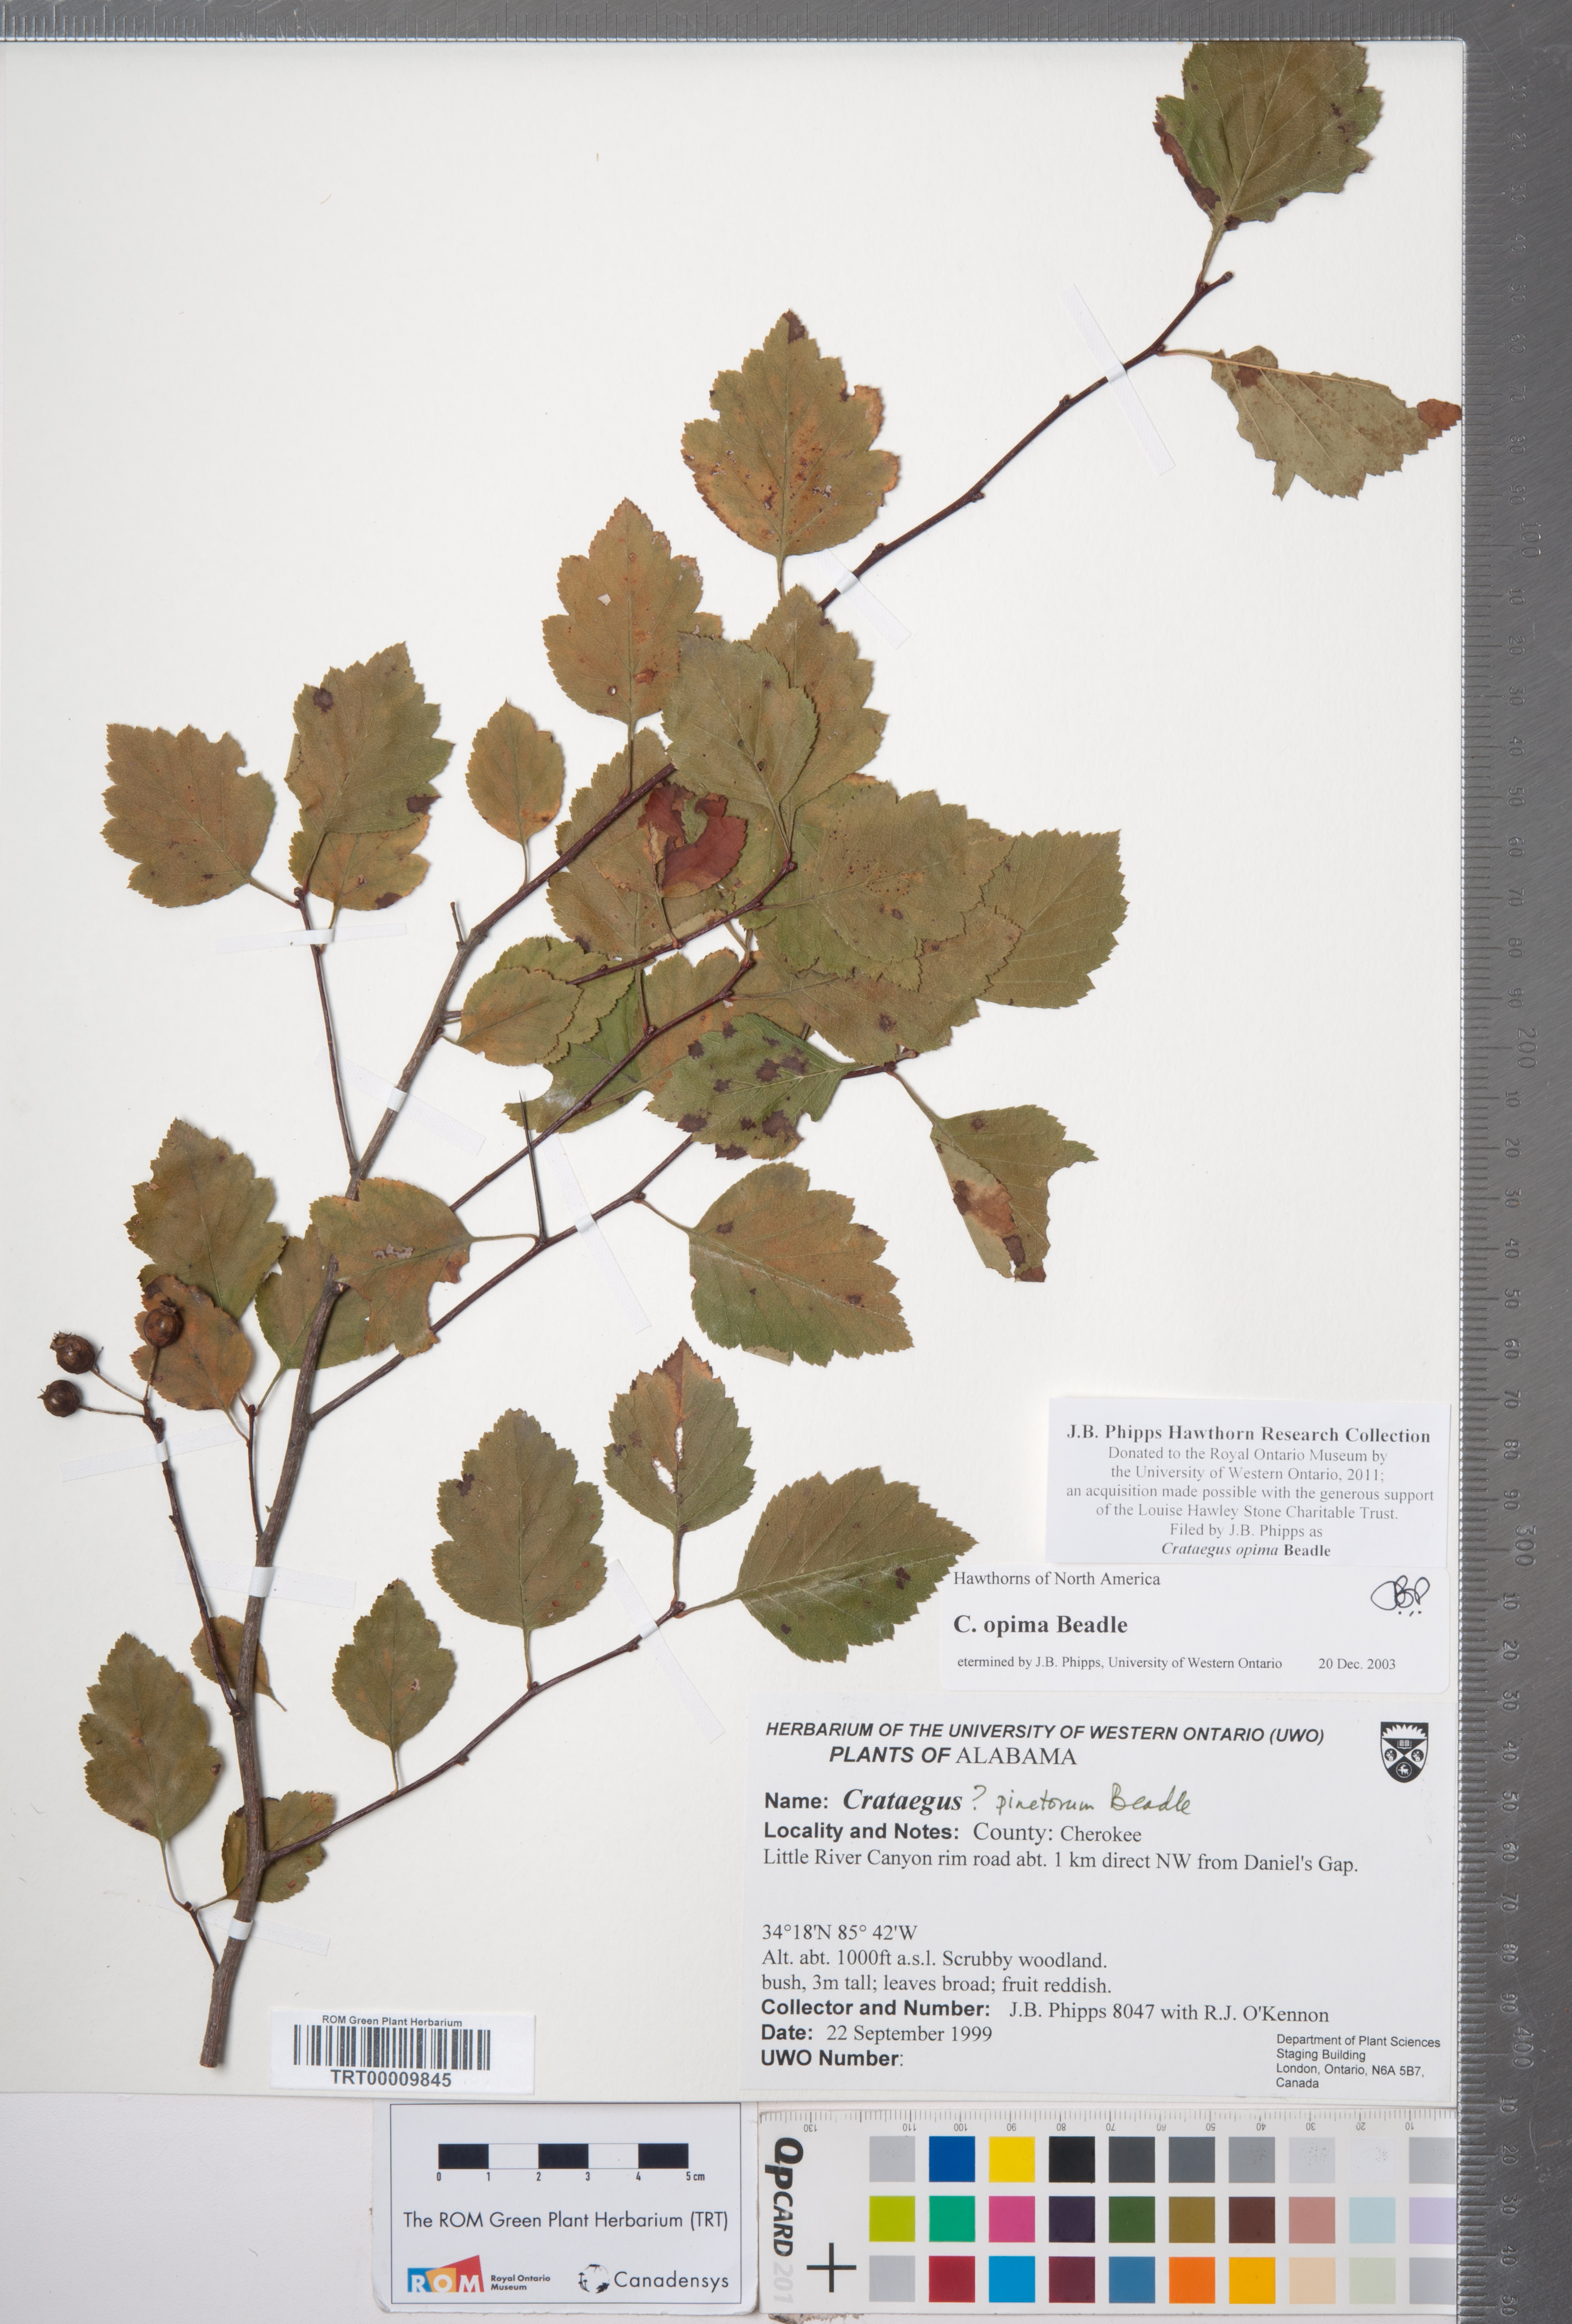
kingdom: Plantae
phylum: Tracheophyta
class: Magnoliopsida
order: Rosales
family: Rosaceae
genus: Crataegus
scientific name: Crataegus pulcherrima
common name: Beautiful hawthorn
